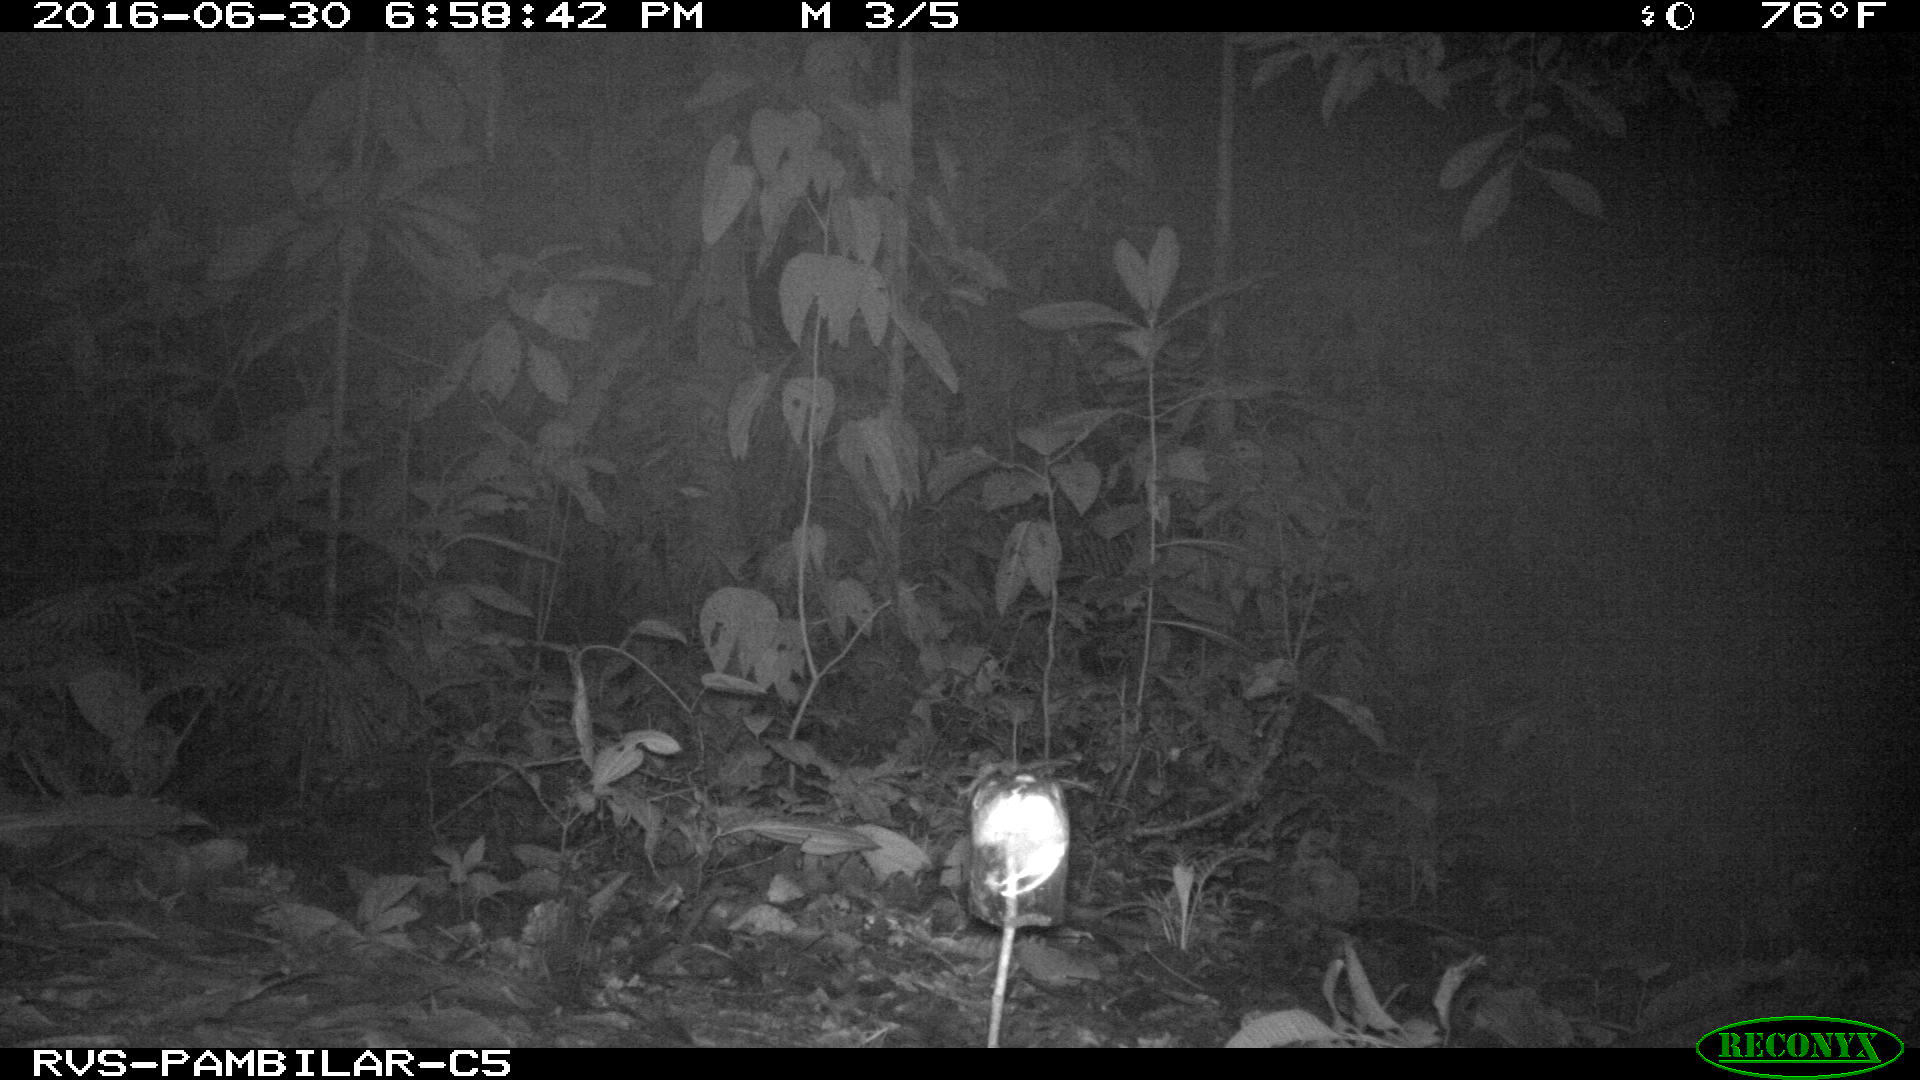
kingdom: Animalia
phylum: Chordata
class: Mammalia
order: Carnivora
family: Canidae
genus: Canis
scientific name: Canis lupus
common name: Gray wolf
